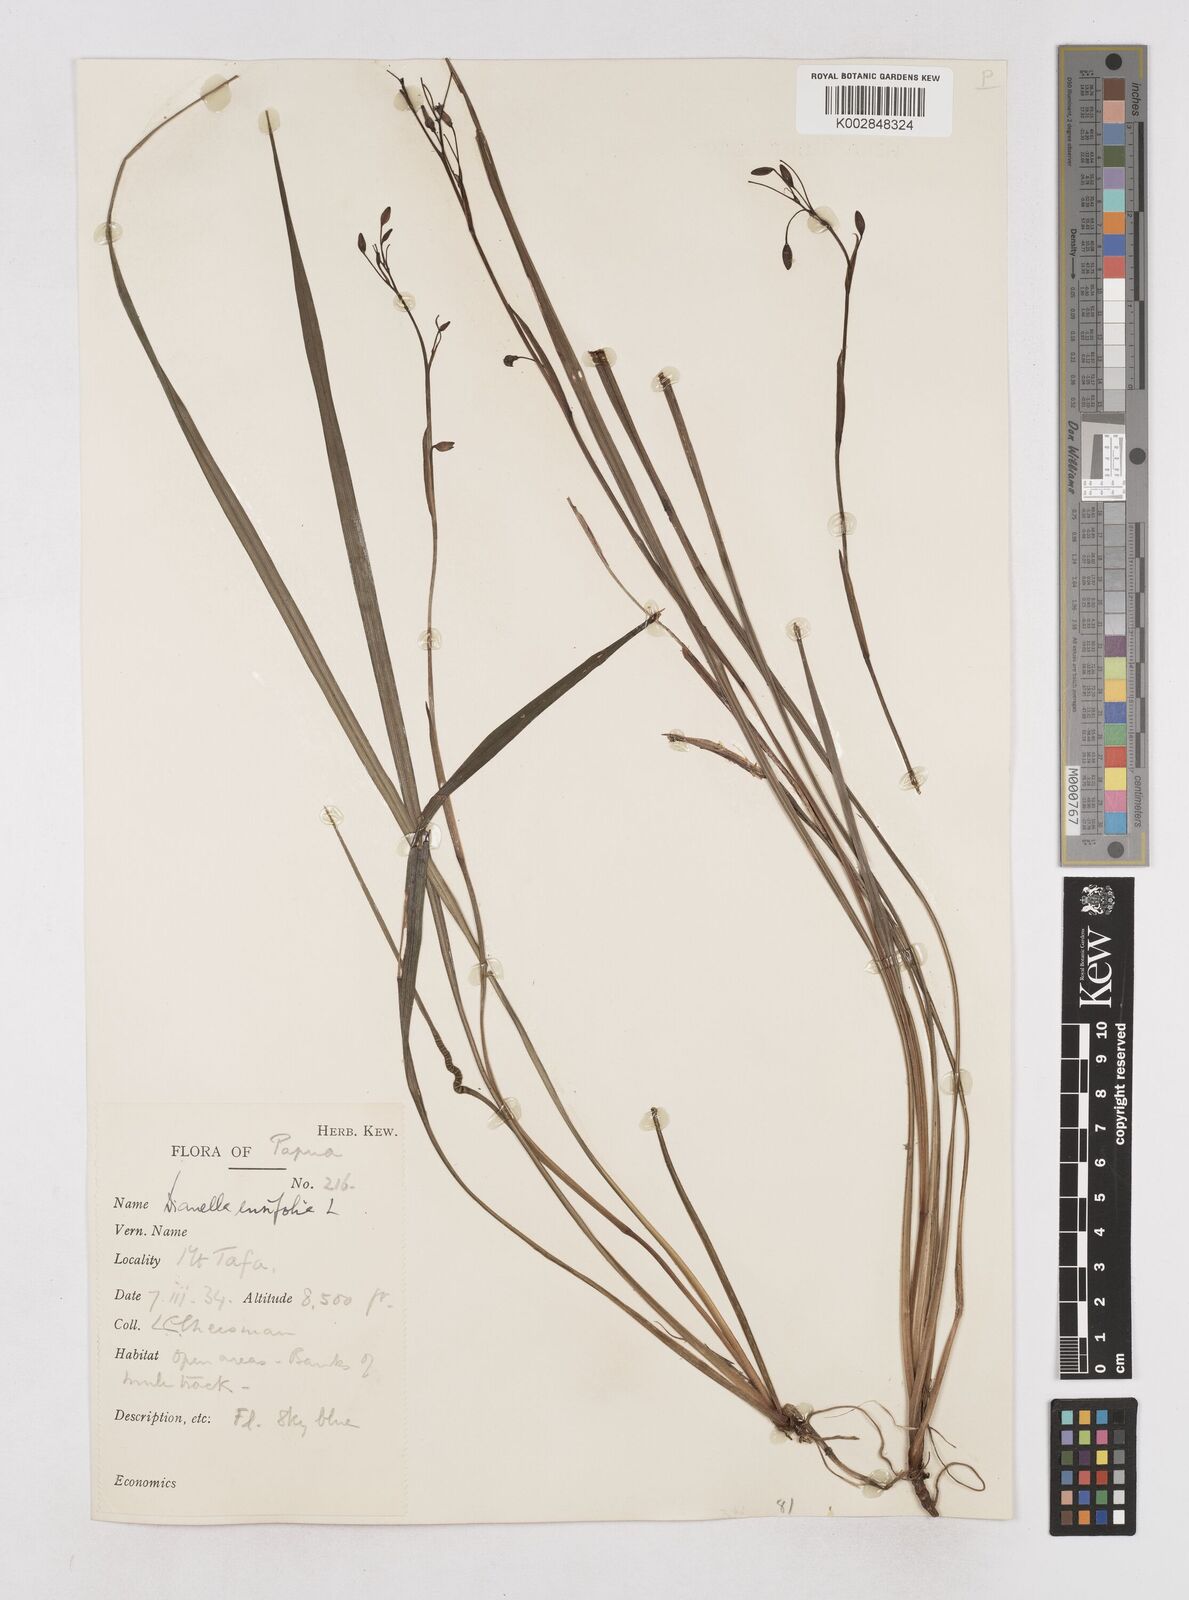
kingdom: Plantae
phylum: Tracheophyta
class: Liliopsida
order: Asparagales
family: Asphodelaceae
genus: Dianella
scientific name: Dianella ensifolia
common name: New zealand lilyplant
